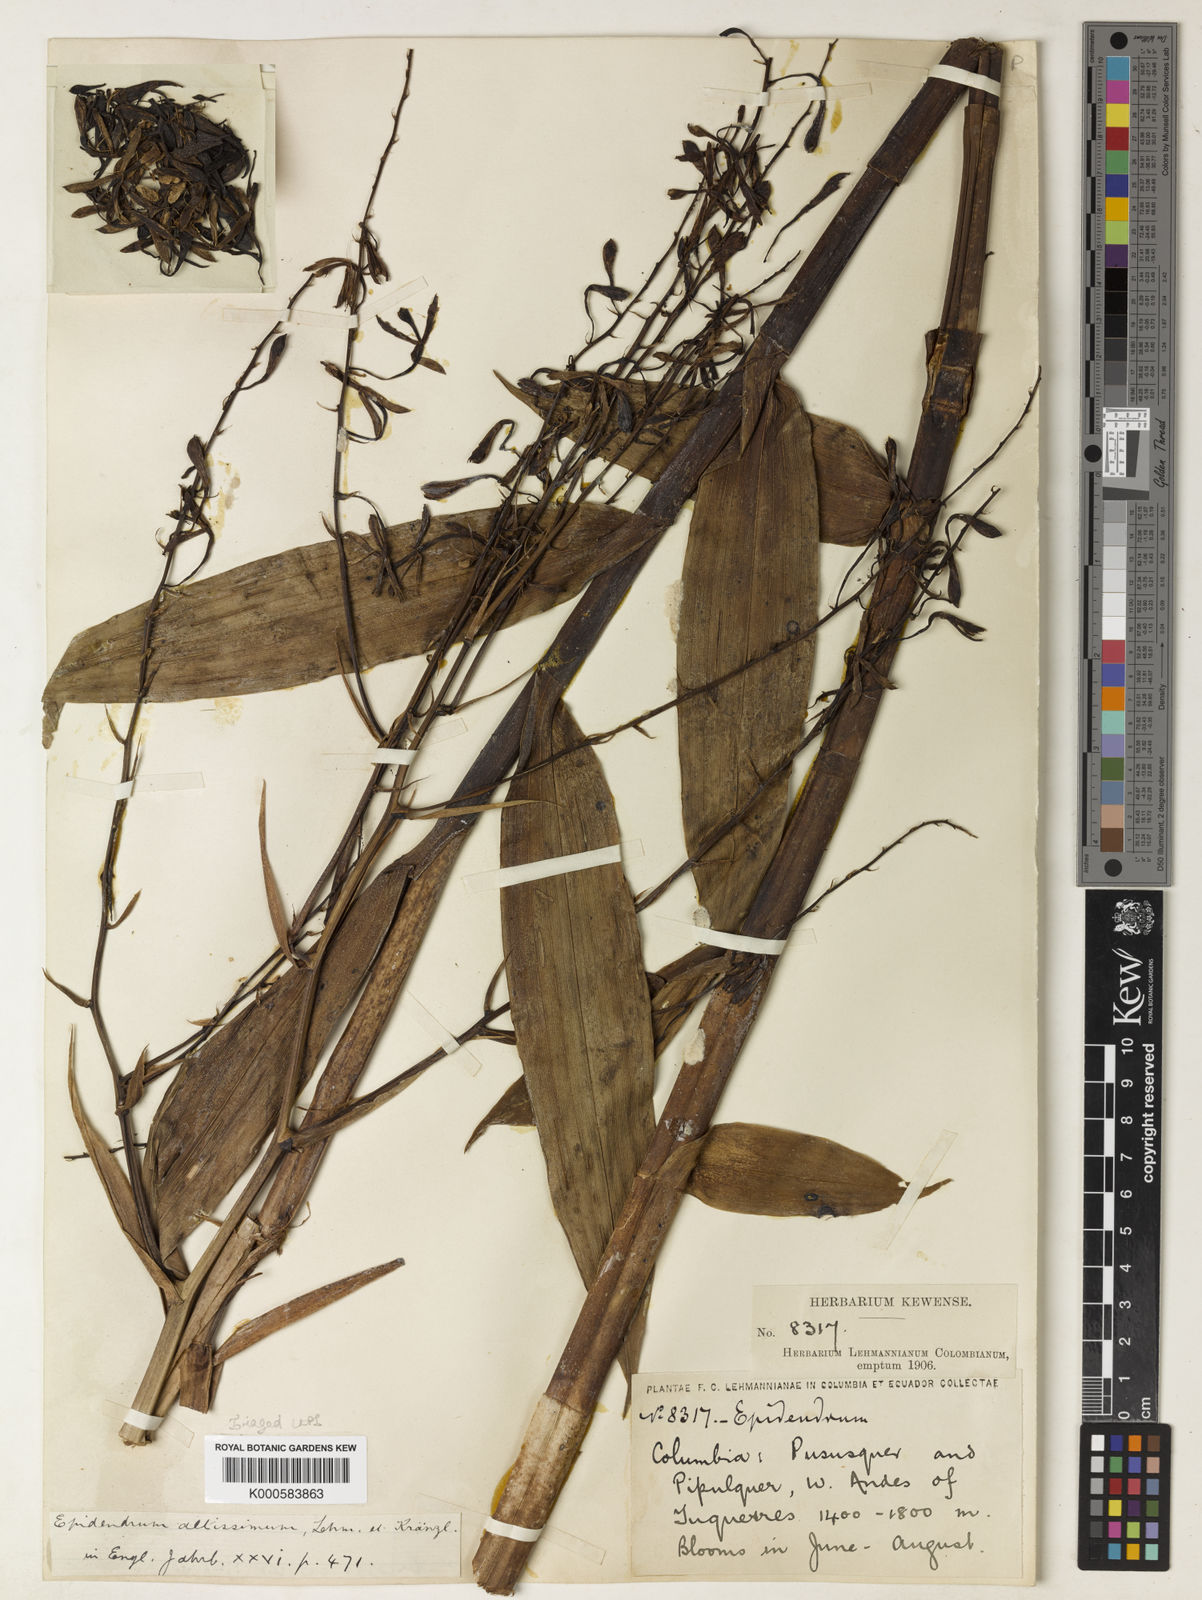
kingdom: Plantae
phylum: Tracheophyta
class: Liliopsida
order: Asparagales
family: Orchidaceae
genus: Epidendrum
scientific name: Epidendrum peraltum
